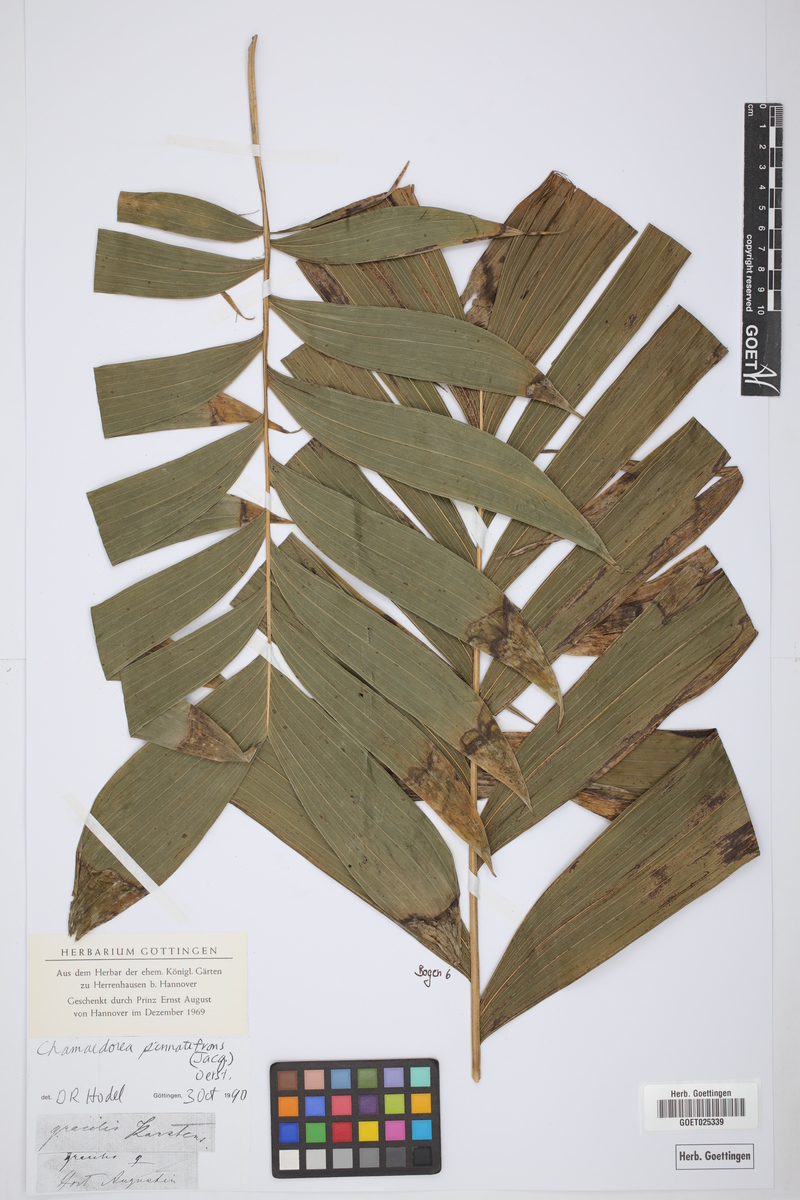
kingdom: Plantae
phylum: Tracheophyta
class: Liliopsida
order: Arecales
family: Arecaceae
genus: Chamaedorea
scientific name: Chamaedorea pinnatifrons
